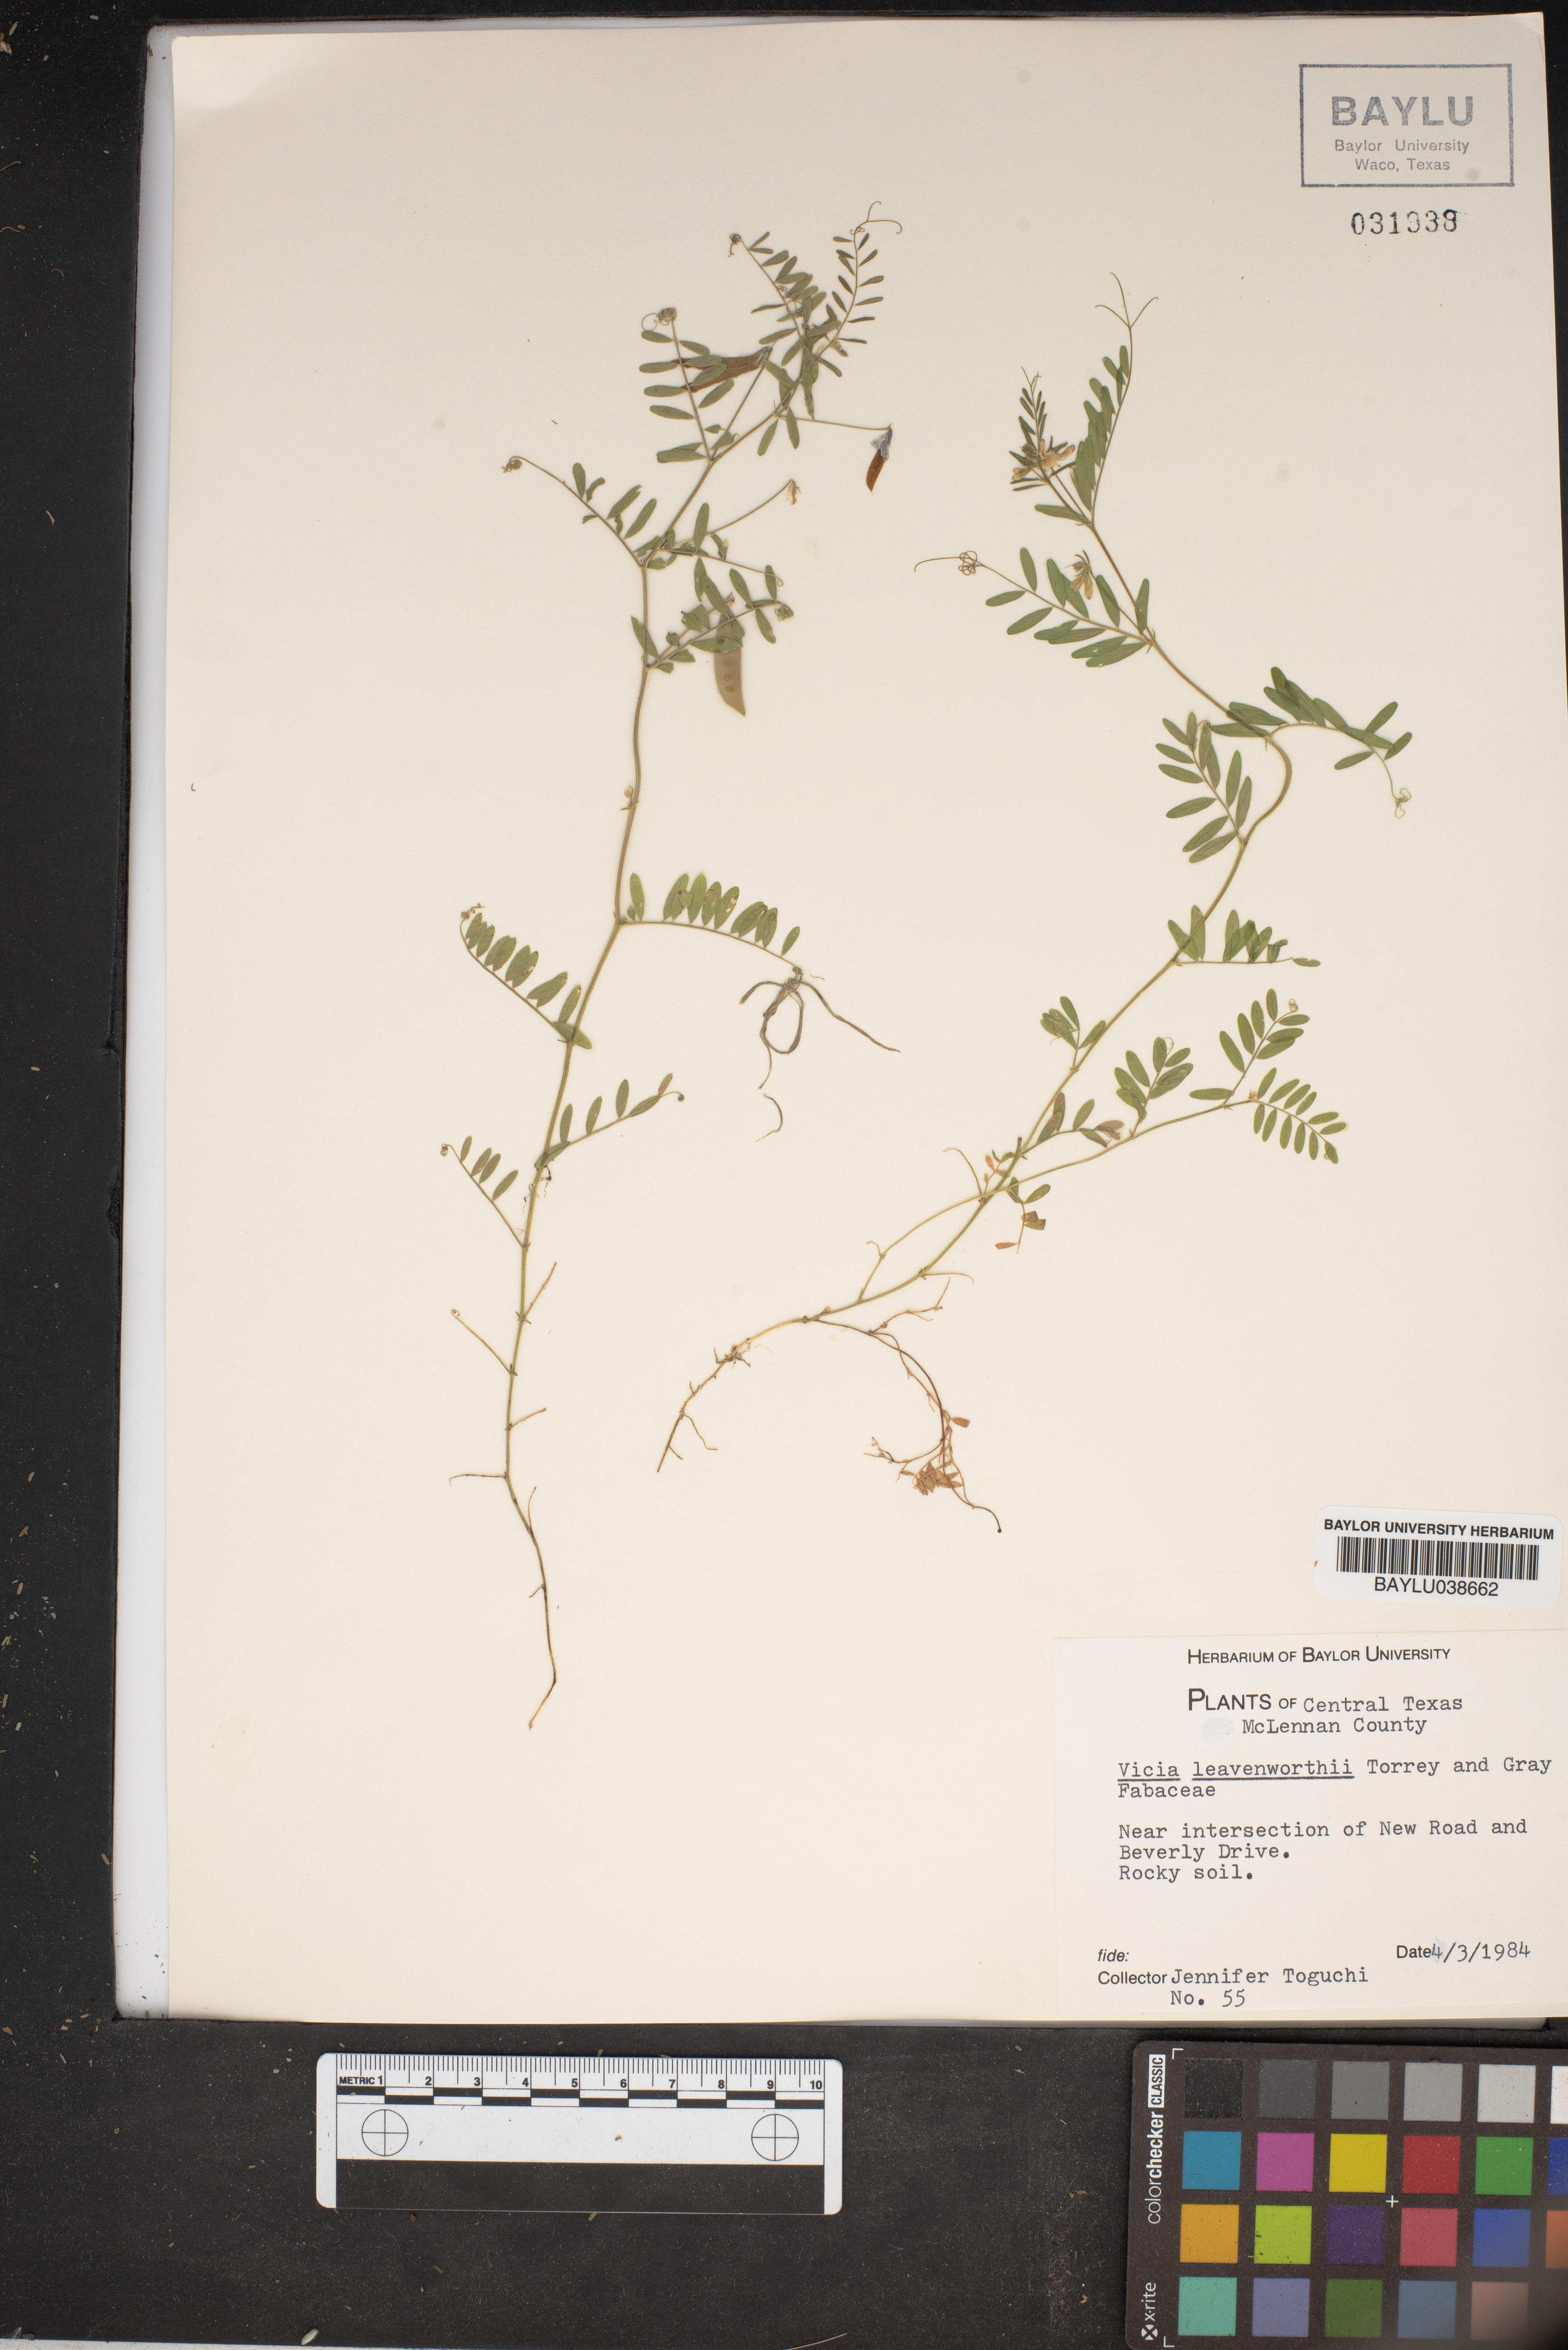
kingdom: Plantae
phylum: Tracheophyta
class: Magnoliopsida
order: Fabales
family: Fabaceae
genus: Vicia
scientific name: Vicia ludoviciana
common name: Louisiana vetch
